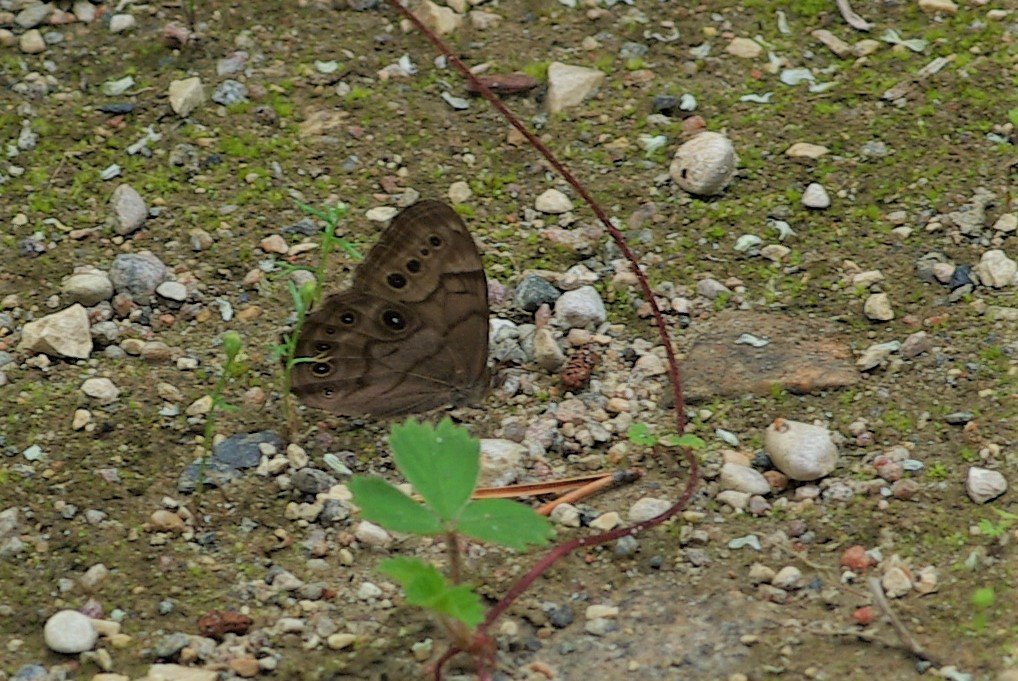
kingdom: Animalia
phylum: Arthropoda
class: Insecta
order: Lepidoptera
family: Nymphalidae
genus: Lethe
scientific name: Lethe anthedon
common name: Northern Pearly-Eye
